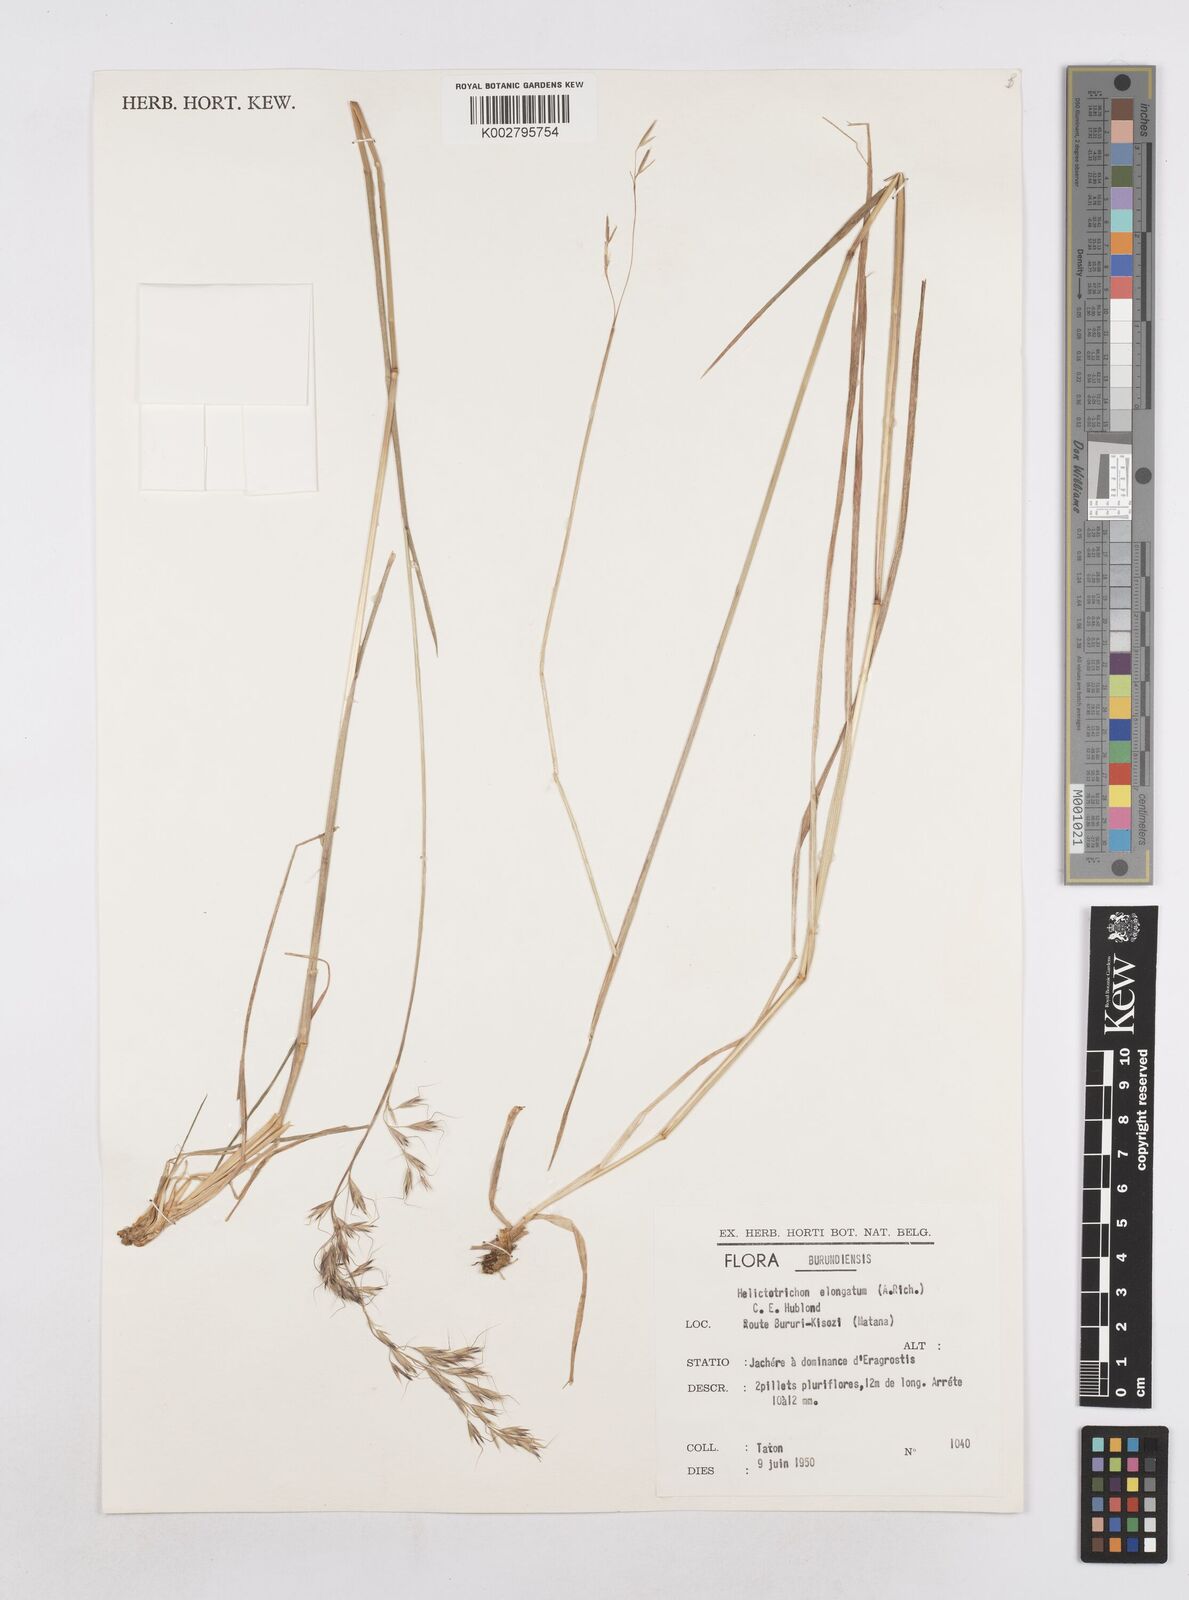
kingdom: Plantae
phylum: Tracheophyta
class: Liliopsida
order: Poales
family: Poaceae
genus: Trisetopsis
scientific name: Trisetopsis elongata
